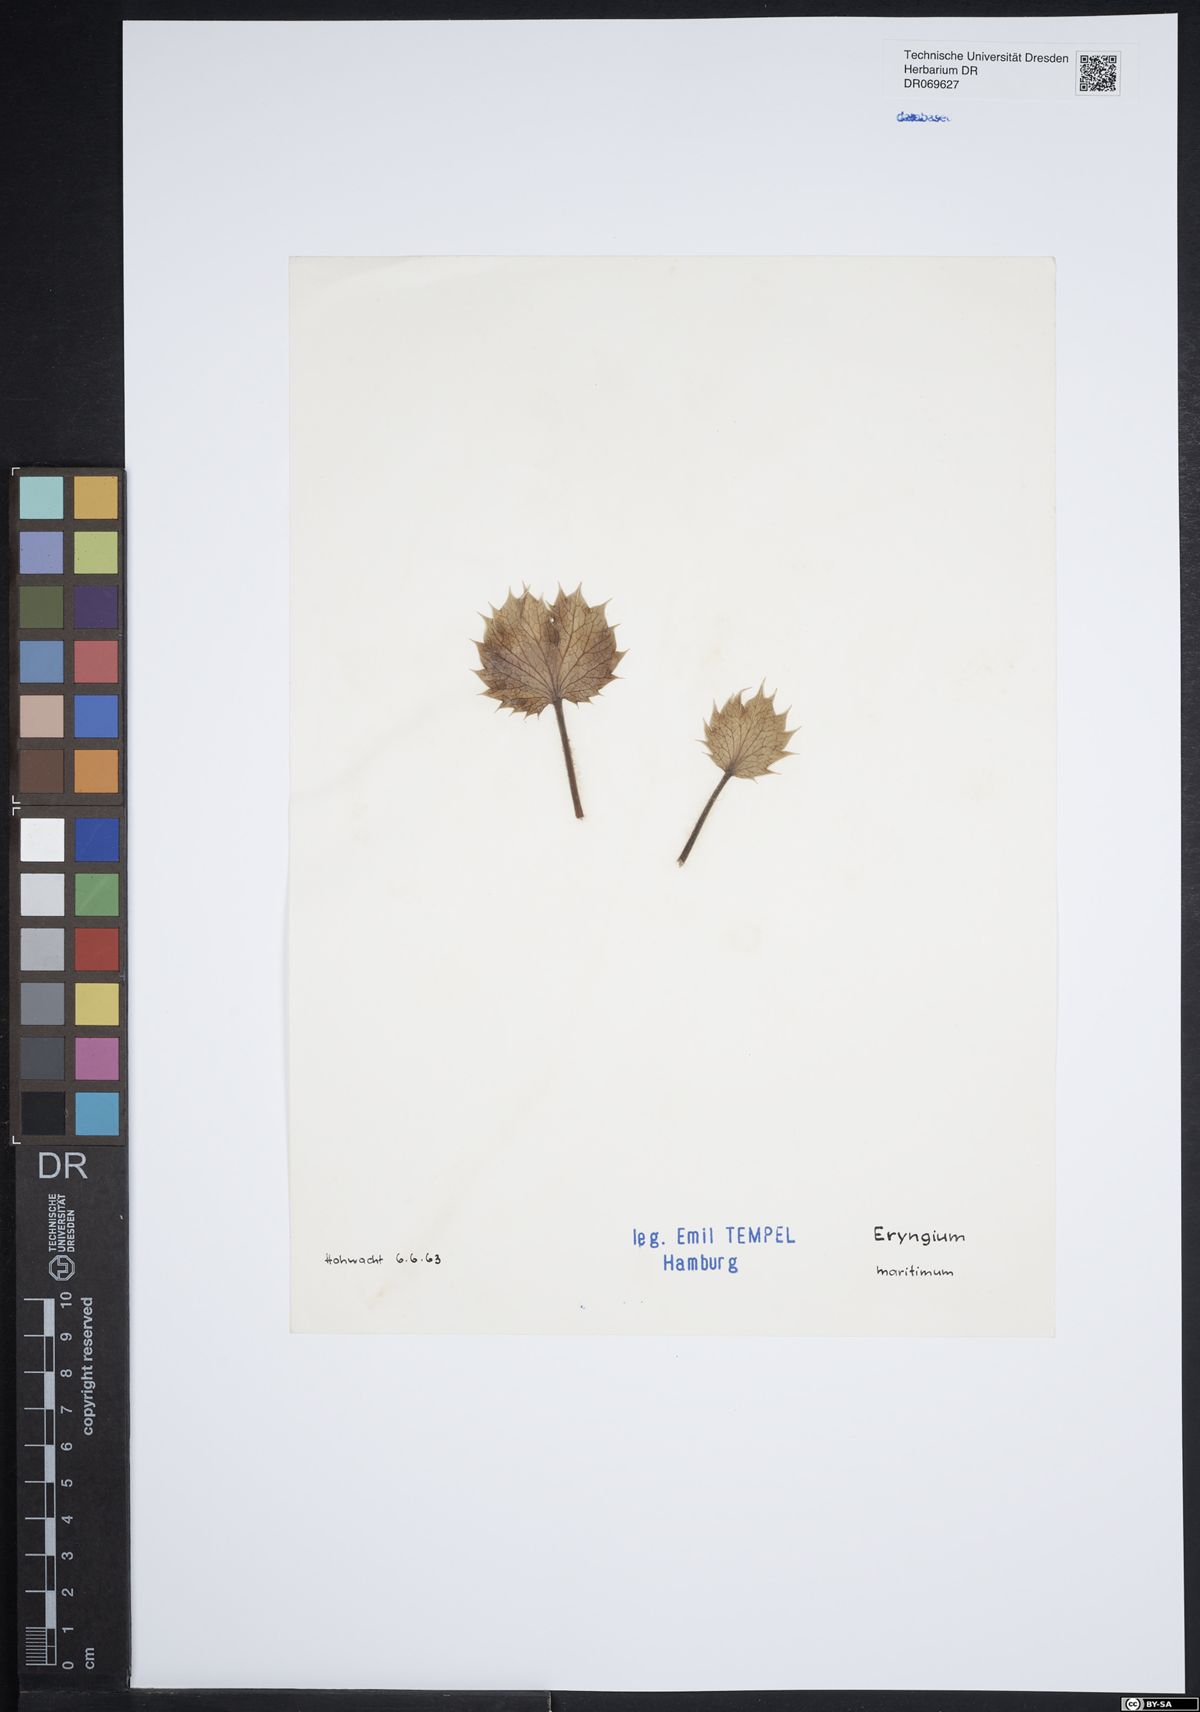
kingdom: Plantae
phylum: Tracheophyta
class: Magnoliopsida
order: Apiales
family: Apiaceae
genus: Eryngium
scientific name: Eryngium maritimum
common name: Sea-holly
